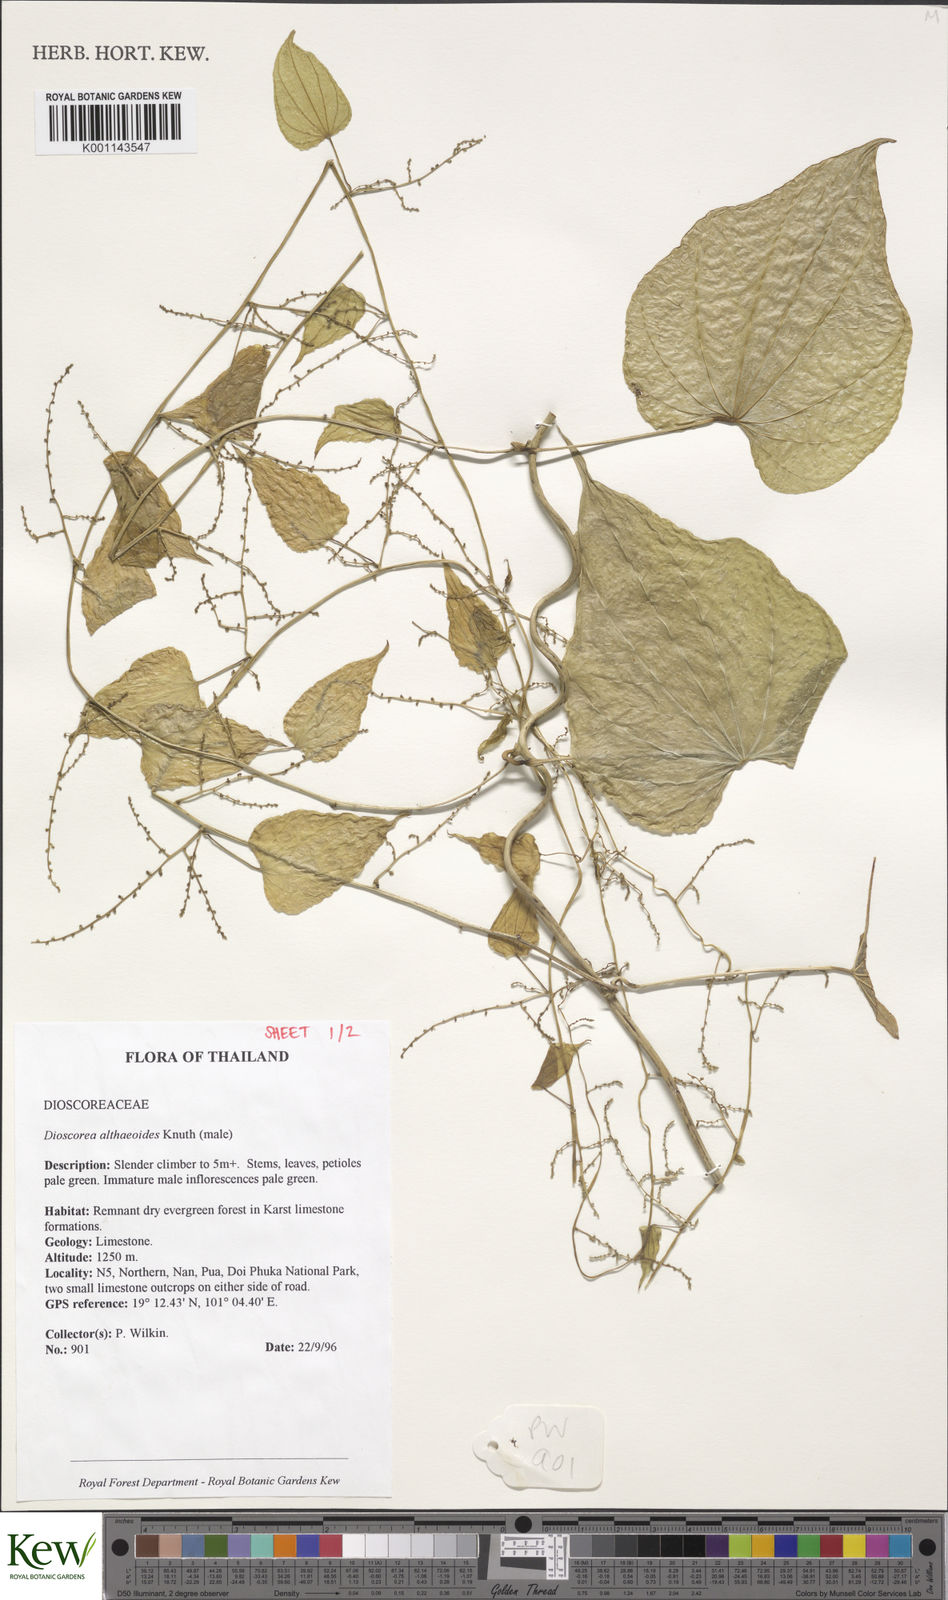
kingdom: Plantae
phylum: Tracheophyta
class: Liliopsida
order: Dioscoreales
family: Dioscoreaceae
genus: Dioscorea
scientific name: Dioscorea rockii
